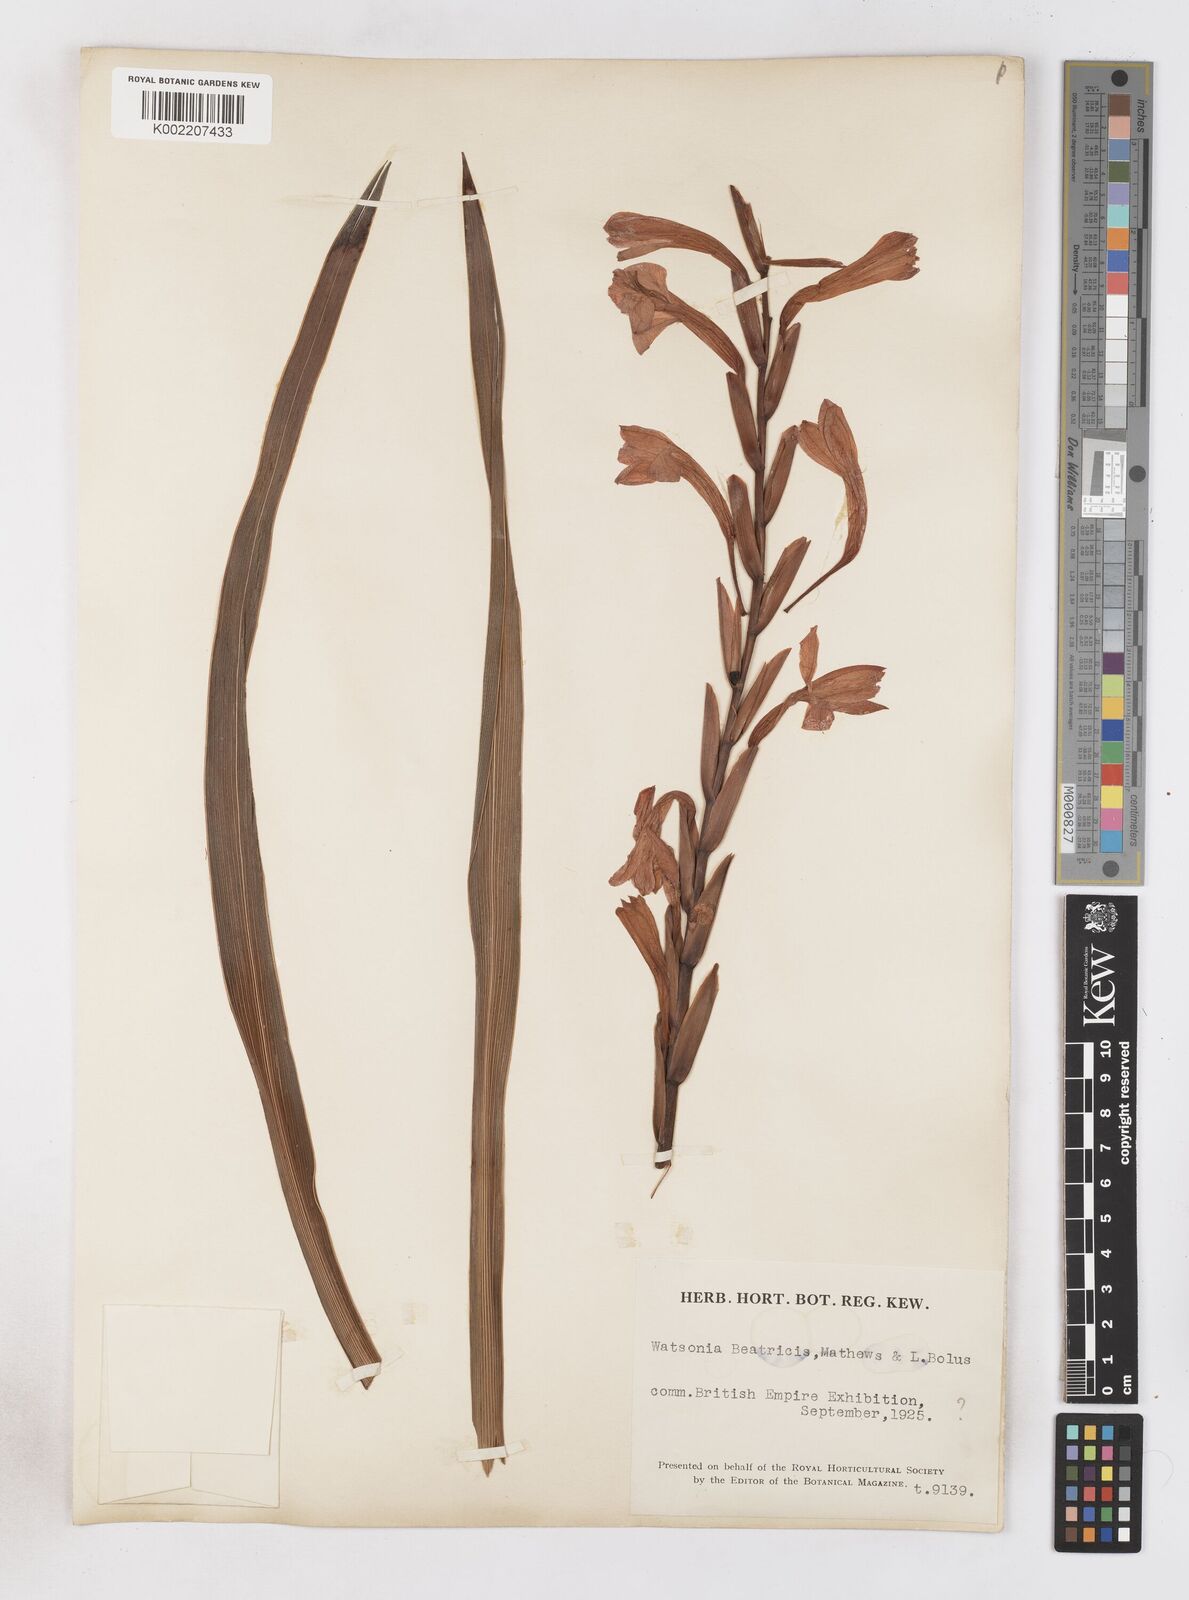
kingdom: Plantae
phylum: Tracheophyta
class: Liliopsida
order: Asparagales
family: Iridaceae
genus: Watsonia
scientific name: Watsonia pillansii
